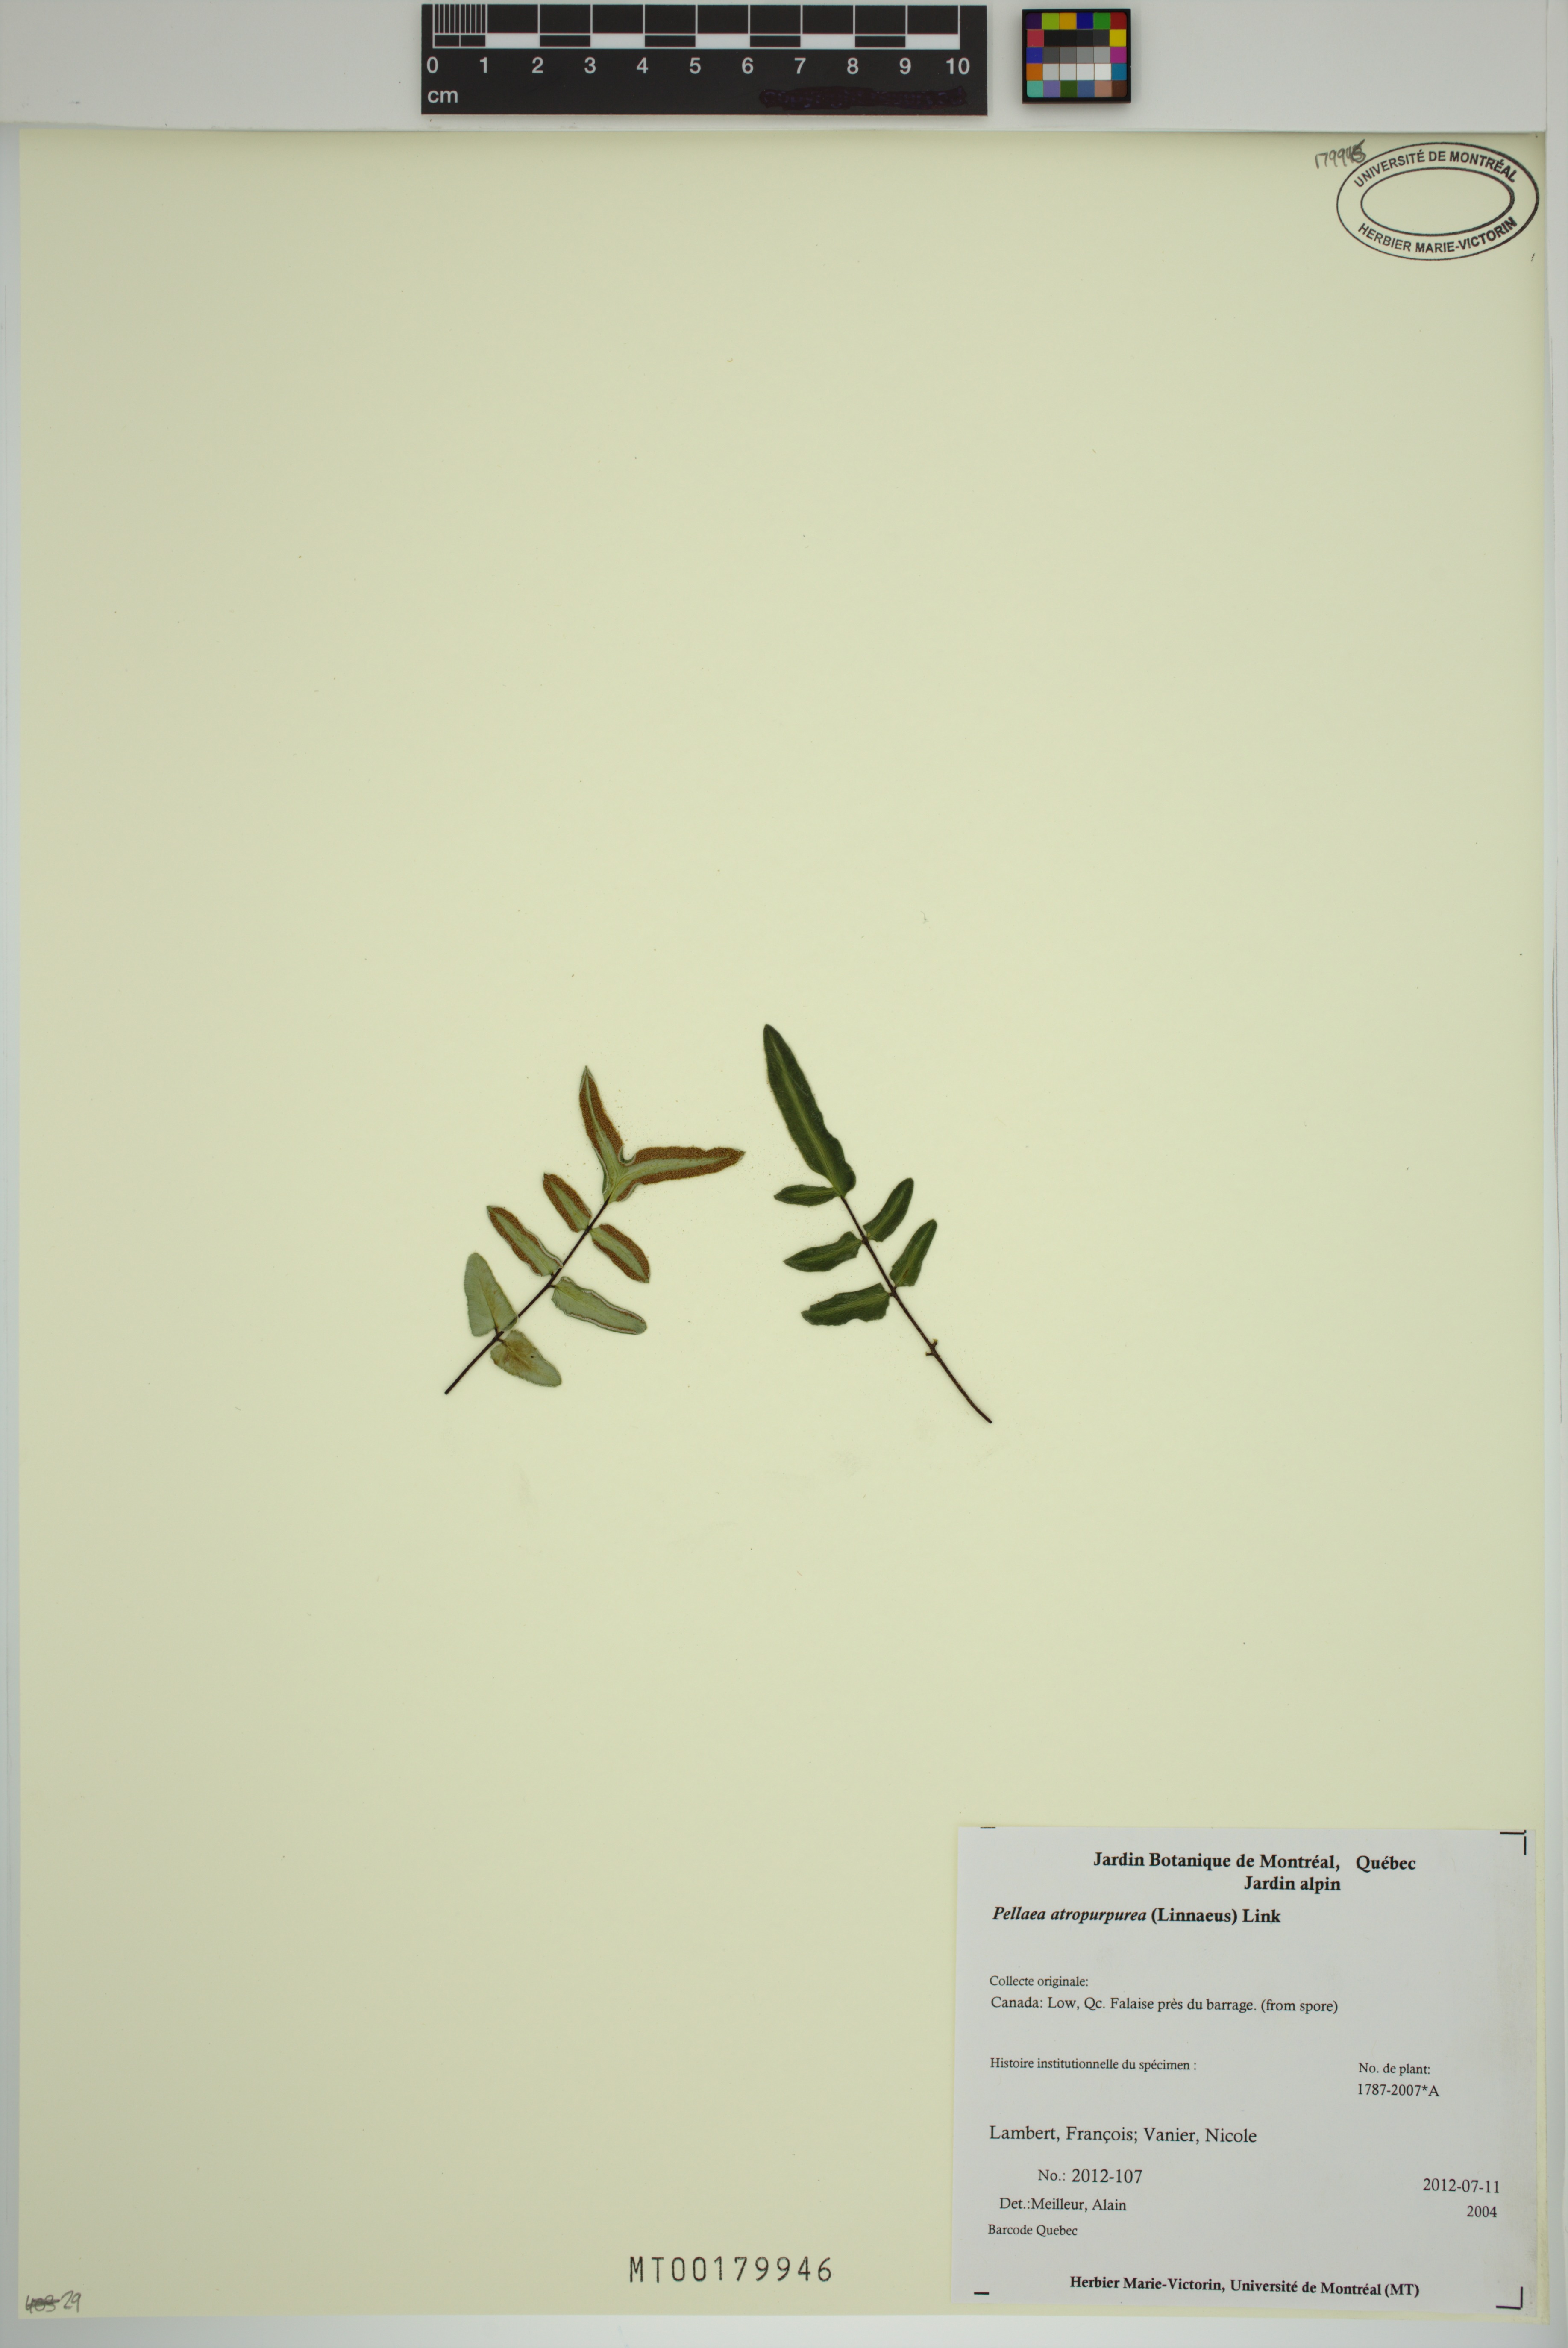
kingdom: Plantae
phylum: Tracheophyta
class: Polypodiopsida
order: Polypodiales
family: Pteridaceae
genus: Pellaea
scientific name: Pellaea atropurpurea
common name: Hairy cliffbrake
